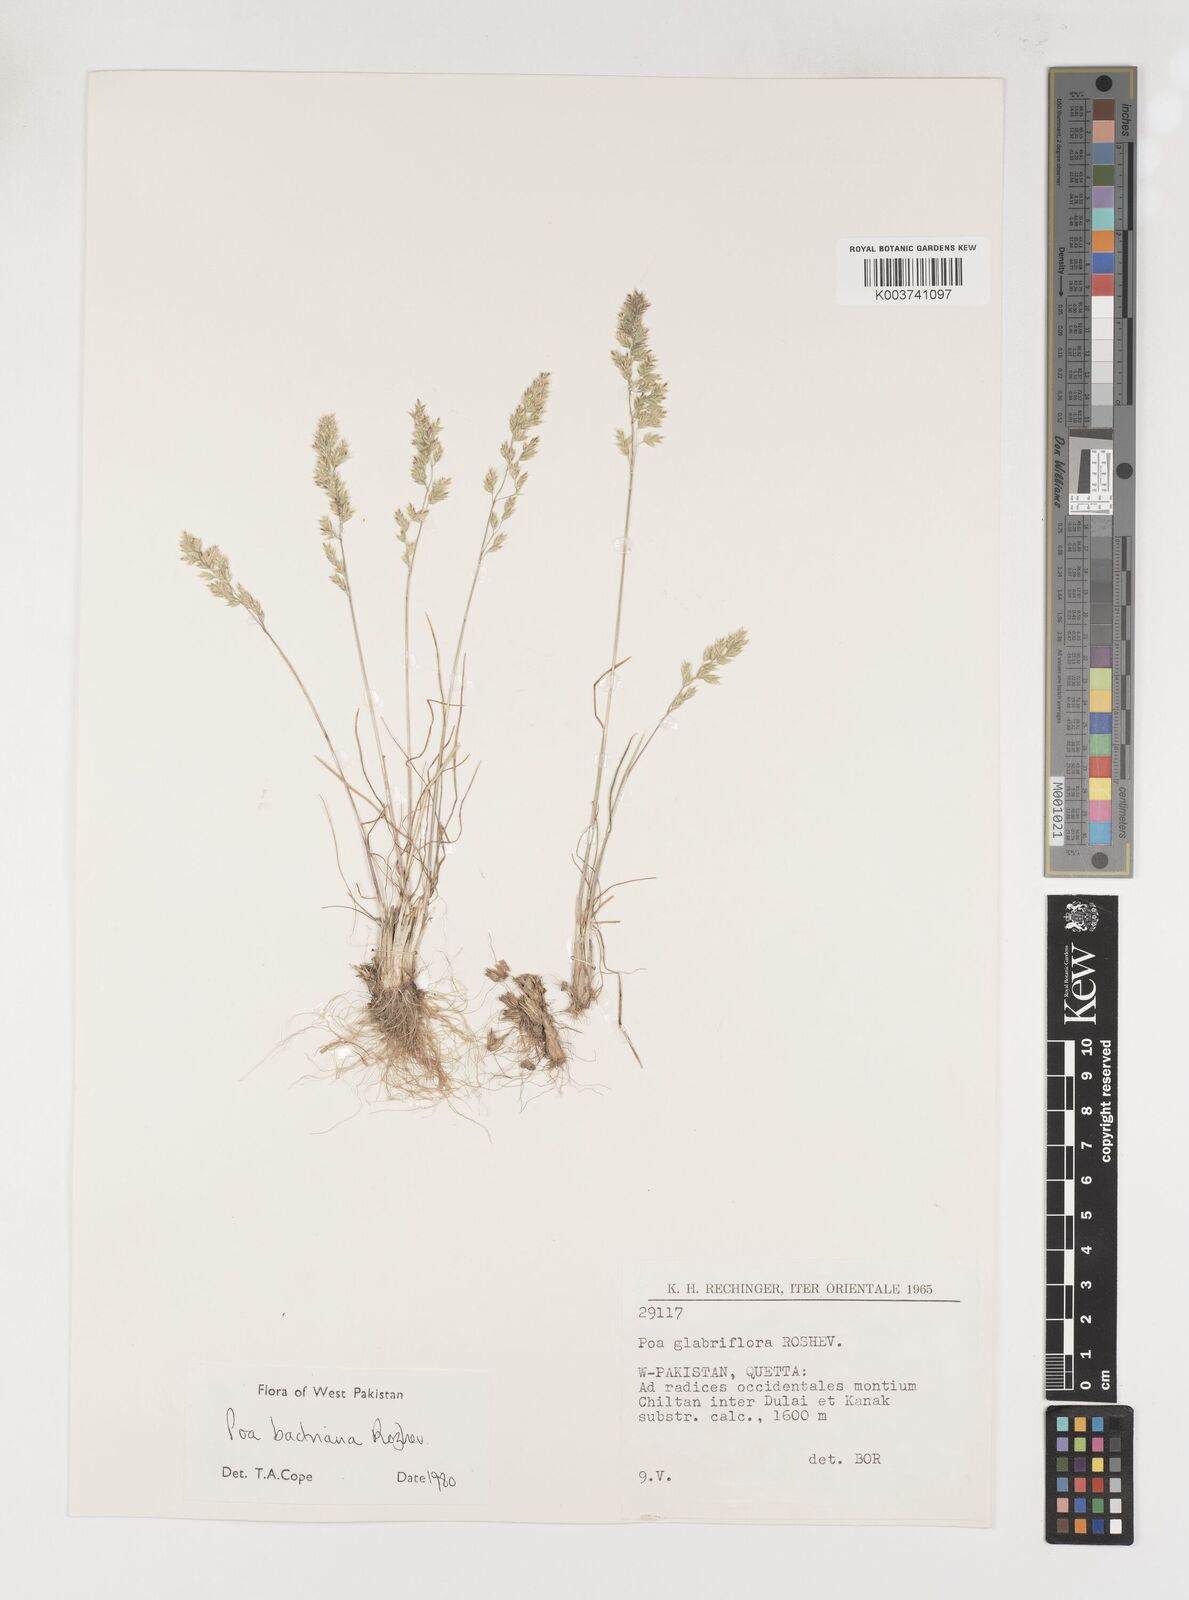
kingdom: Plantae
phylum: Tracheophyta
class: Liliopsida
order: Poales
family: Poaceae
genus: Poa
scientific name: Poa bactriana
